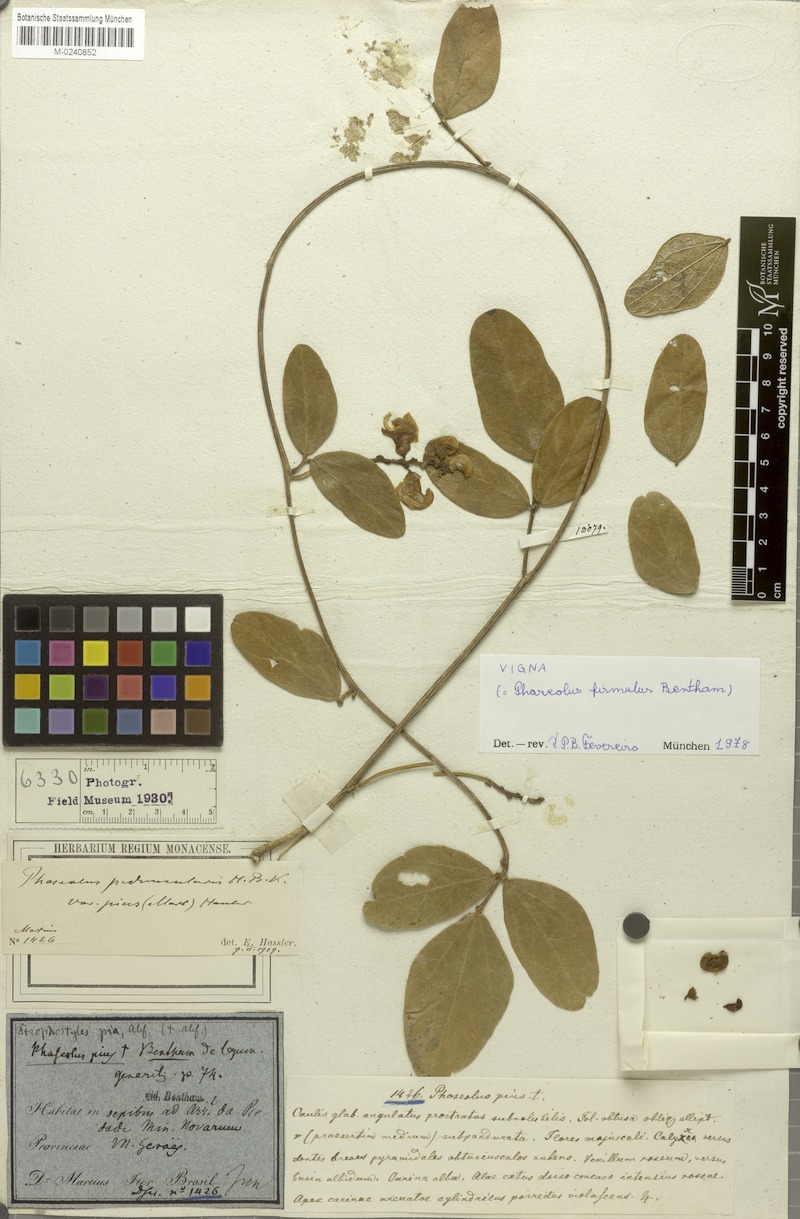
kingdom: Plantae
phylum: Tracheophyta
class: Magnoliopsida
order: Fabales
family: Fabaceae
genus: Ancistrotropis
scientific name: Ancistrotropis firmula
